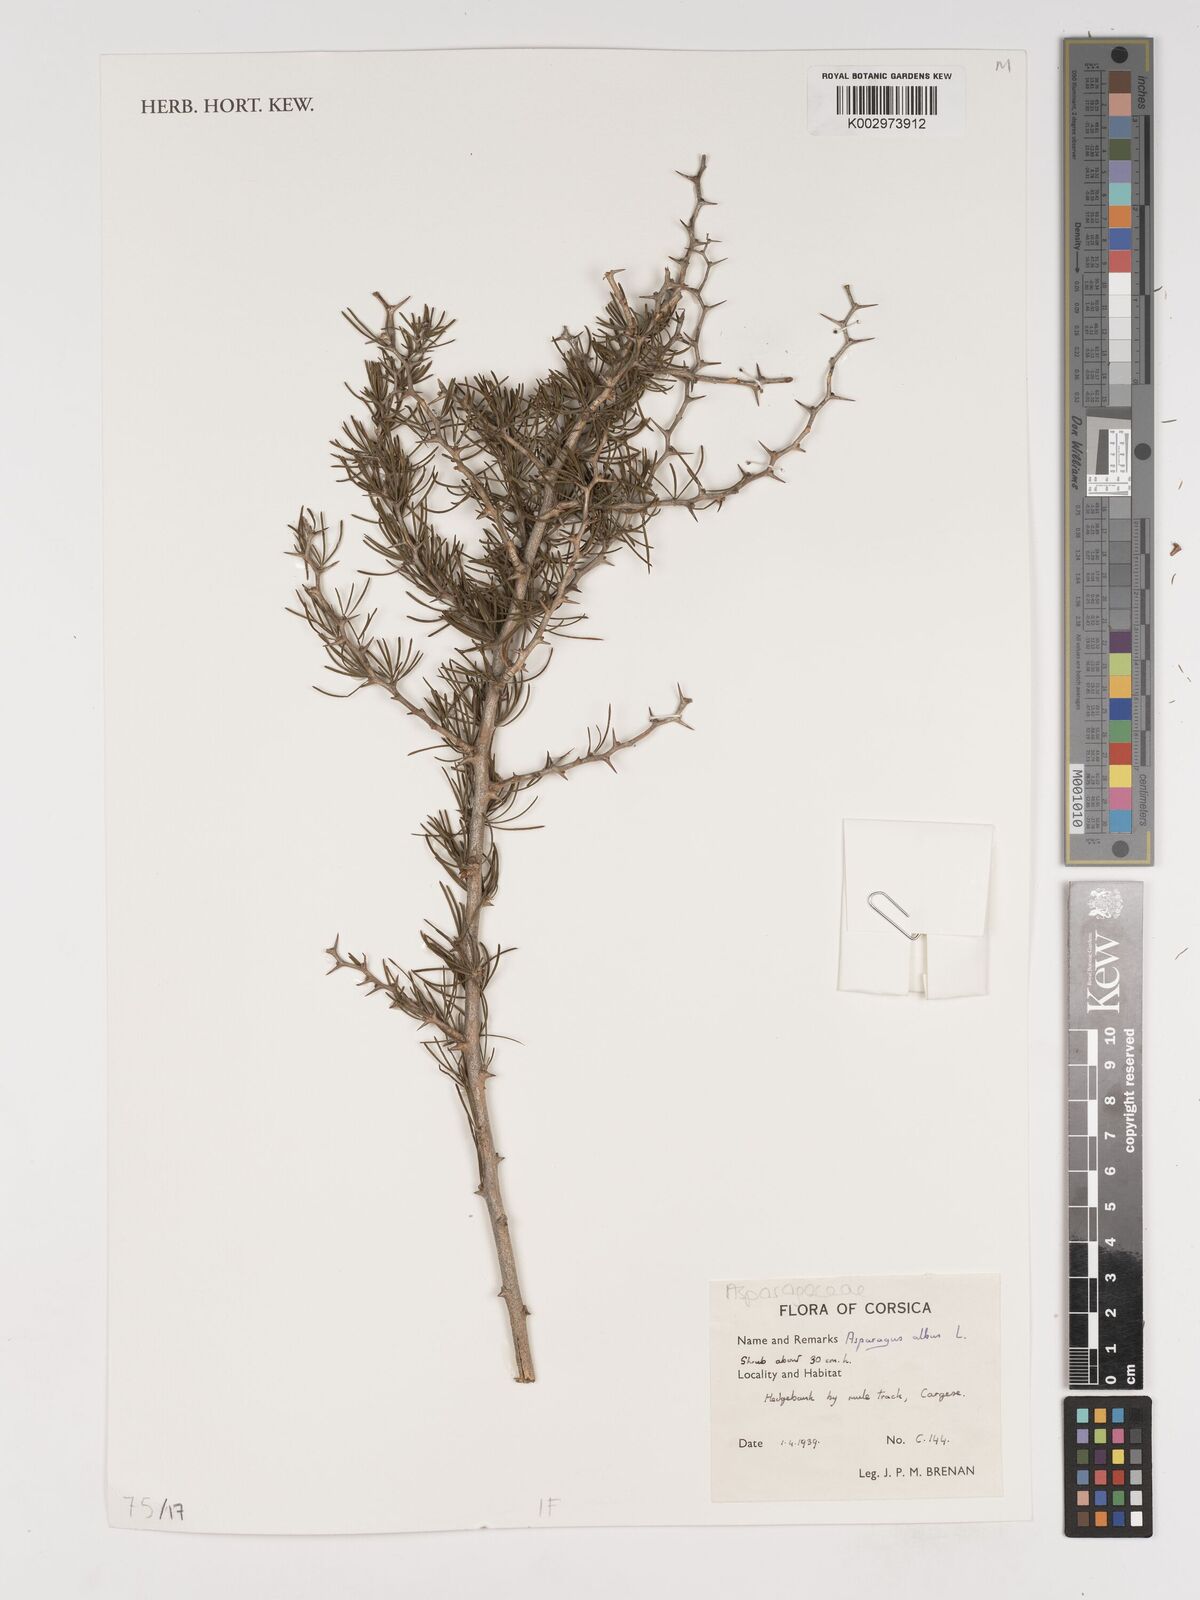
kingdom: Plantae
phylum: Tracheophyta
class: Liliopsida
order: Asparagales
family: Asparagaceae
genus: Asparagus
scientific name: Asparagus albus
